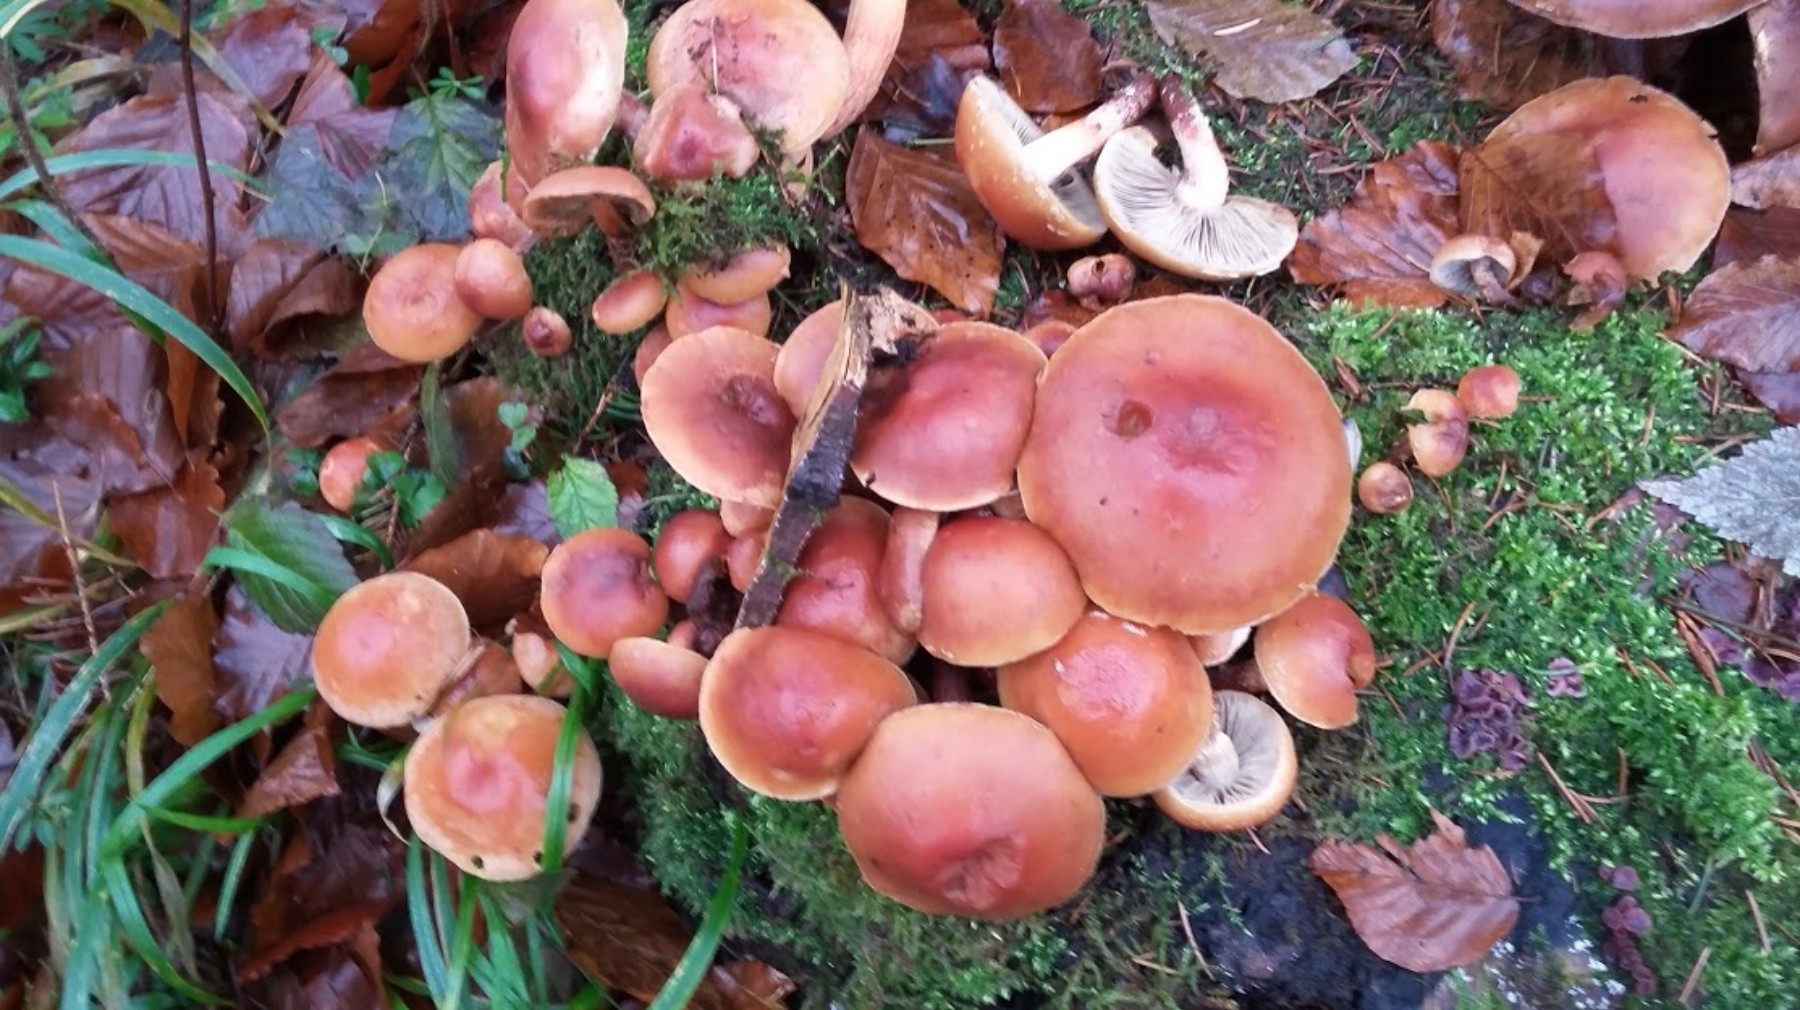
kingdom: Fungi
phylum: Basidiomycota
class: Agaricomycetes
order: Agaricales
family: Strophariaceae
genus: Hypholoma
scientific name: Hypholoma lateritium
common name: teglrød svovlhat
